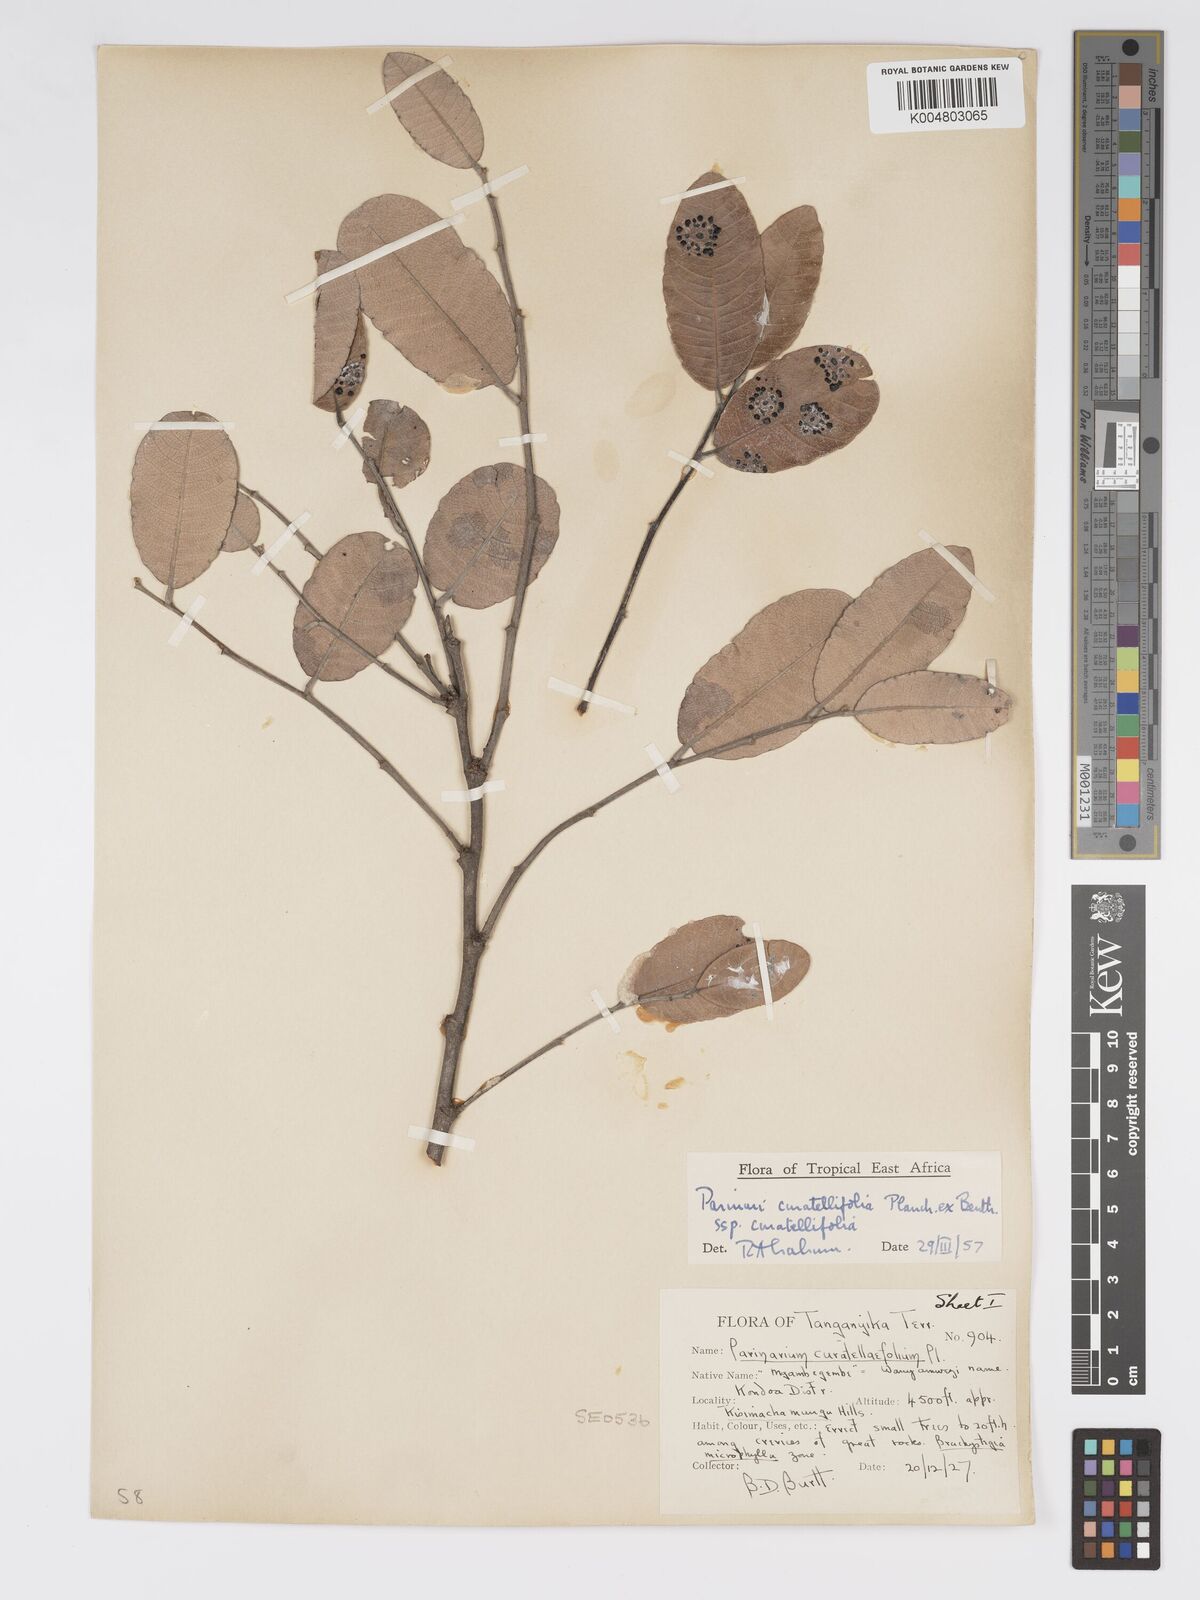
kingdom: Plantae
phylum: Tracheophyta
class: Magnoliopsida
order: Malpighiales
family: Chrysobalanaceae
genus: Parinari
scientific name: Parinari curatellifolia
